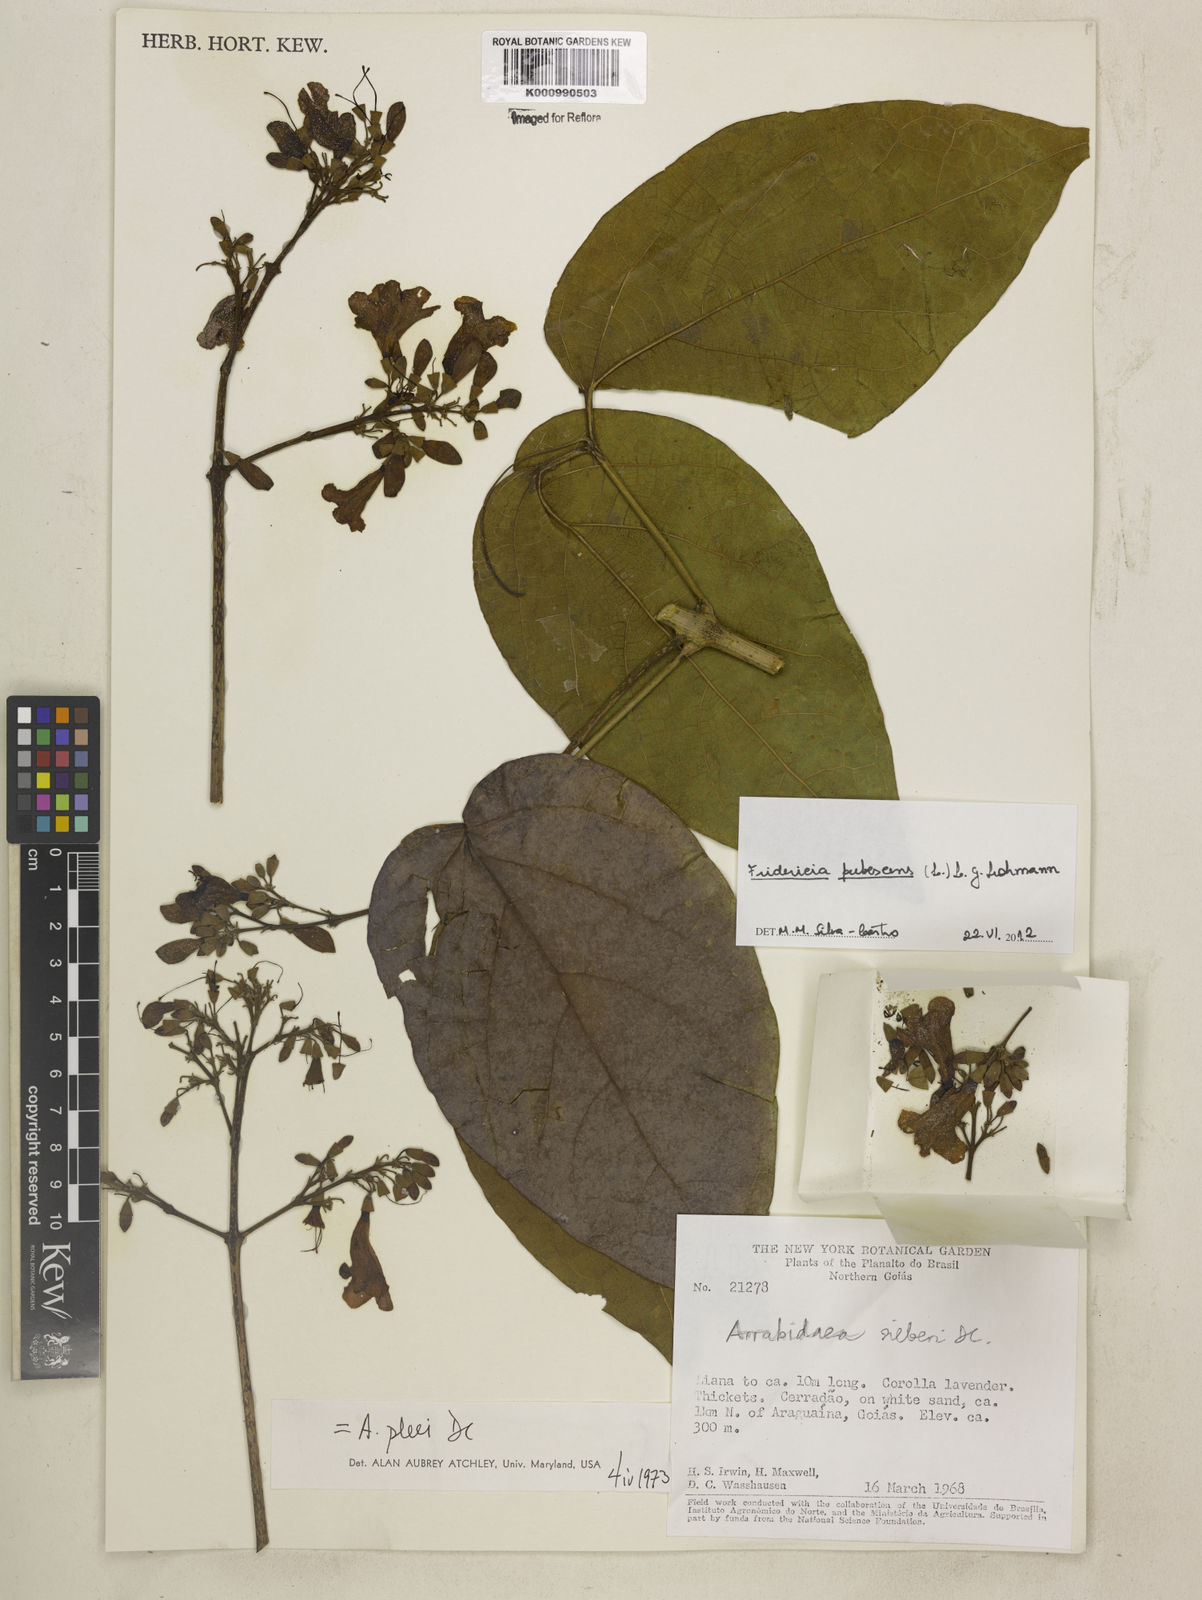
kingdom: Plantae
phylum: Tracheophyta
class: Magnoliopsida
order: Lamiales
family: Bignoniaceae
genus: Fridericia
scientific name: Fridericia pubescens
